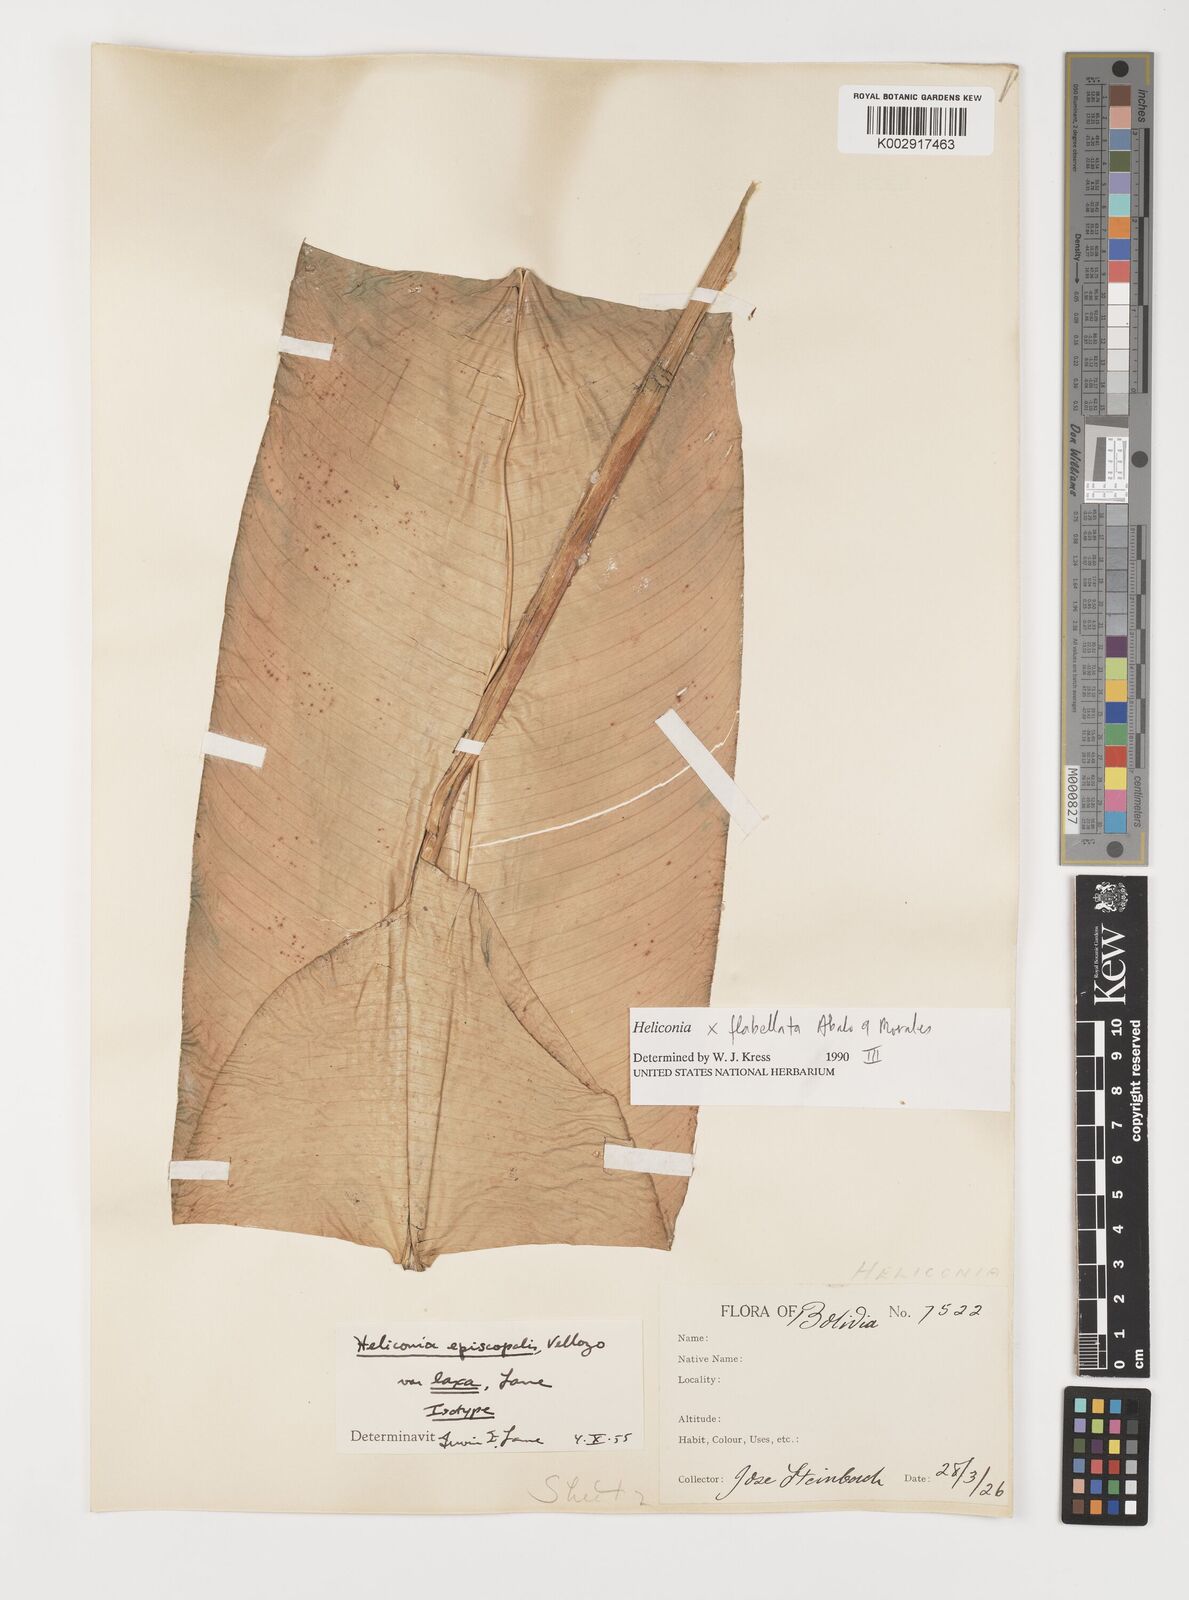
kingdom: Plantae
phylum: Tracheophyta
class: Liliopsida
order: Zingiberales
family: Heliconiaceae
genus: Heliconia
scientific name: Heliconia flabellata
